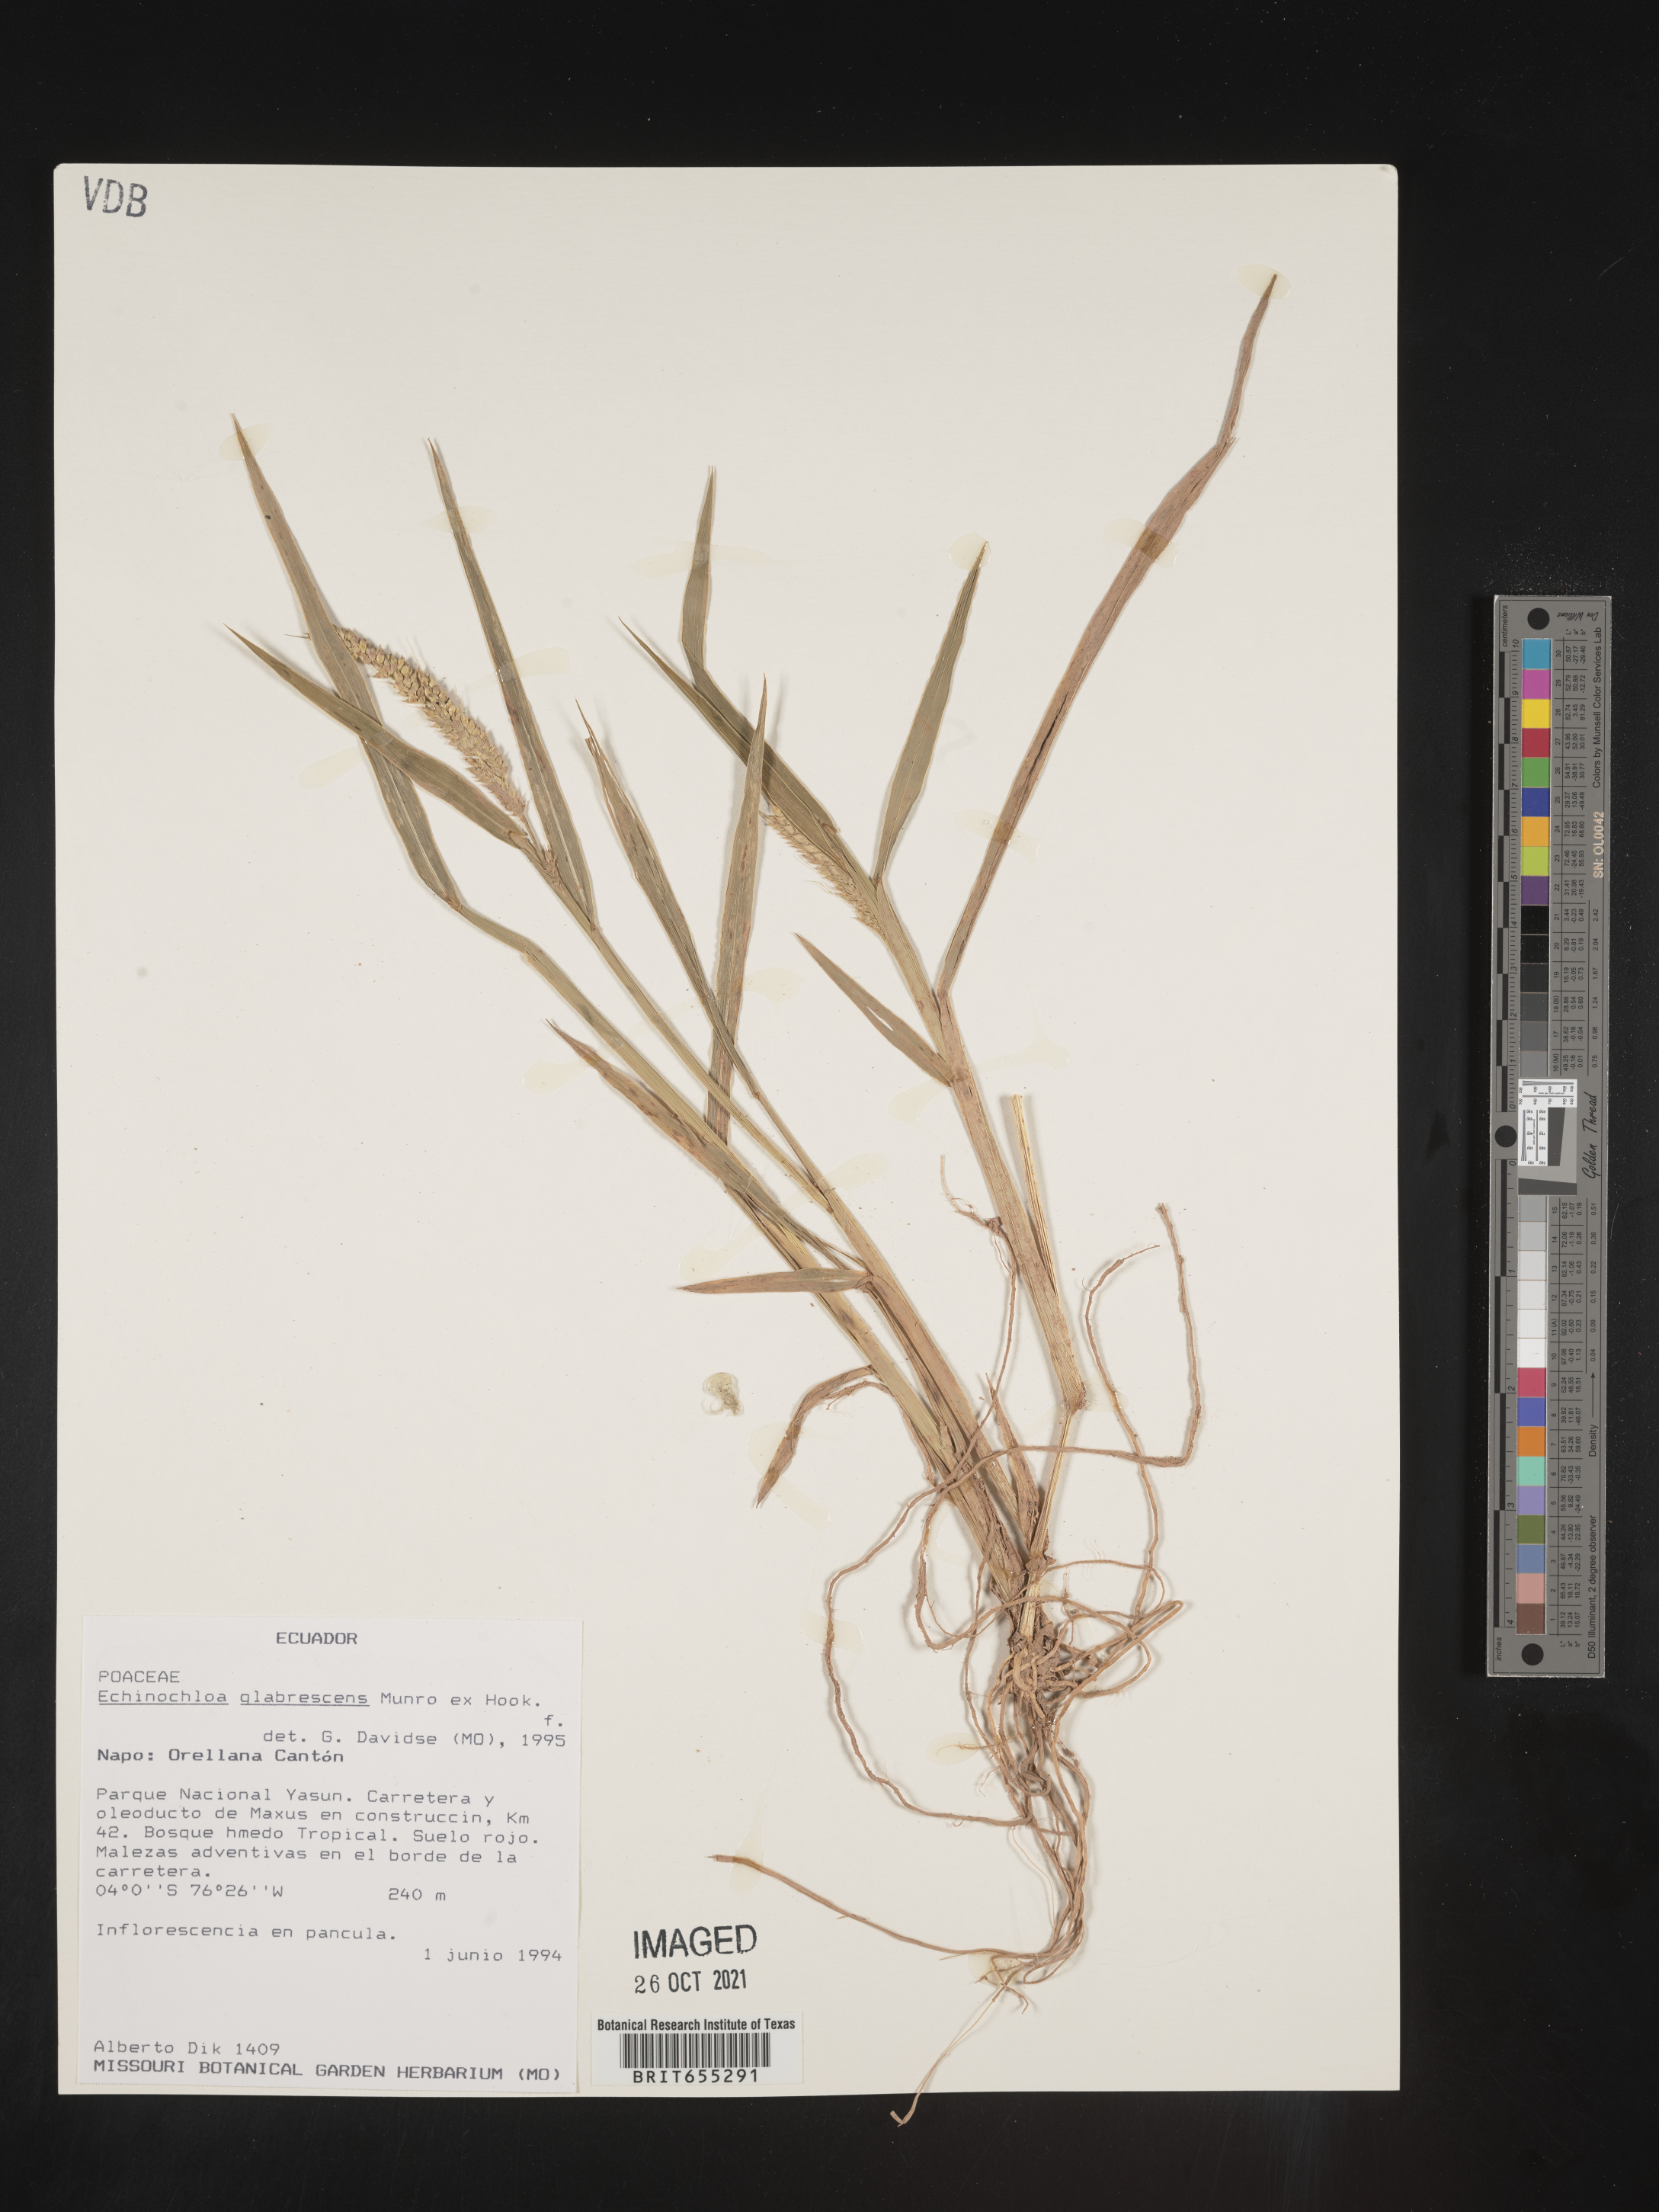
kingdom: Plantae
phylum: Tracheophyta
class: Liliopsida
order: Poales
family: Poaceae
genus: Echinochloa
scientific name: Echinochloa
